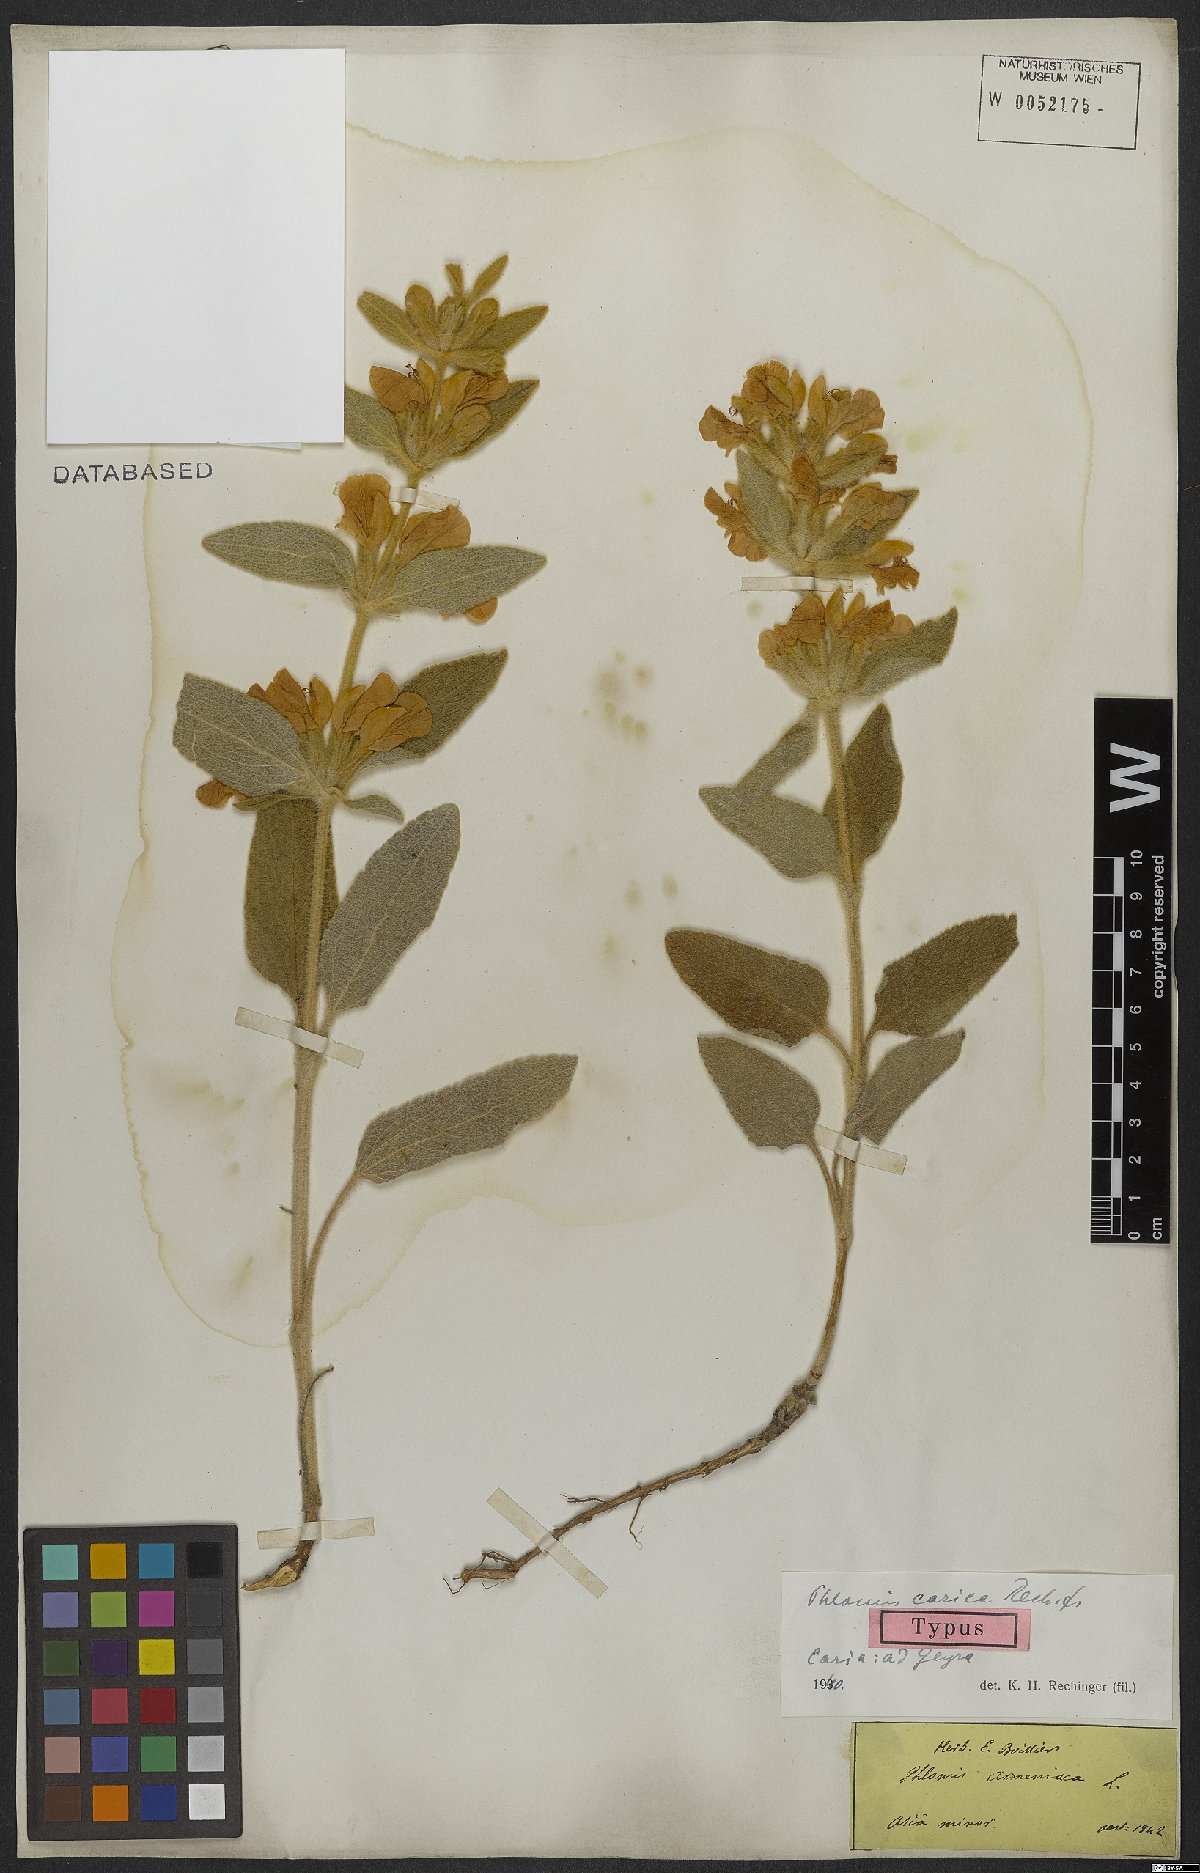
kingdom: Plantae
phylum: Tracheophyta
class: Magnoliopsida
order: Lamiales
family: Lamiaceae
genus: Phlomis
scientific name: Phlomis carica
